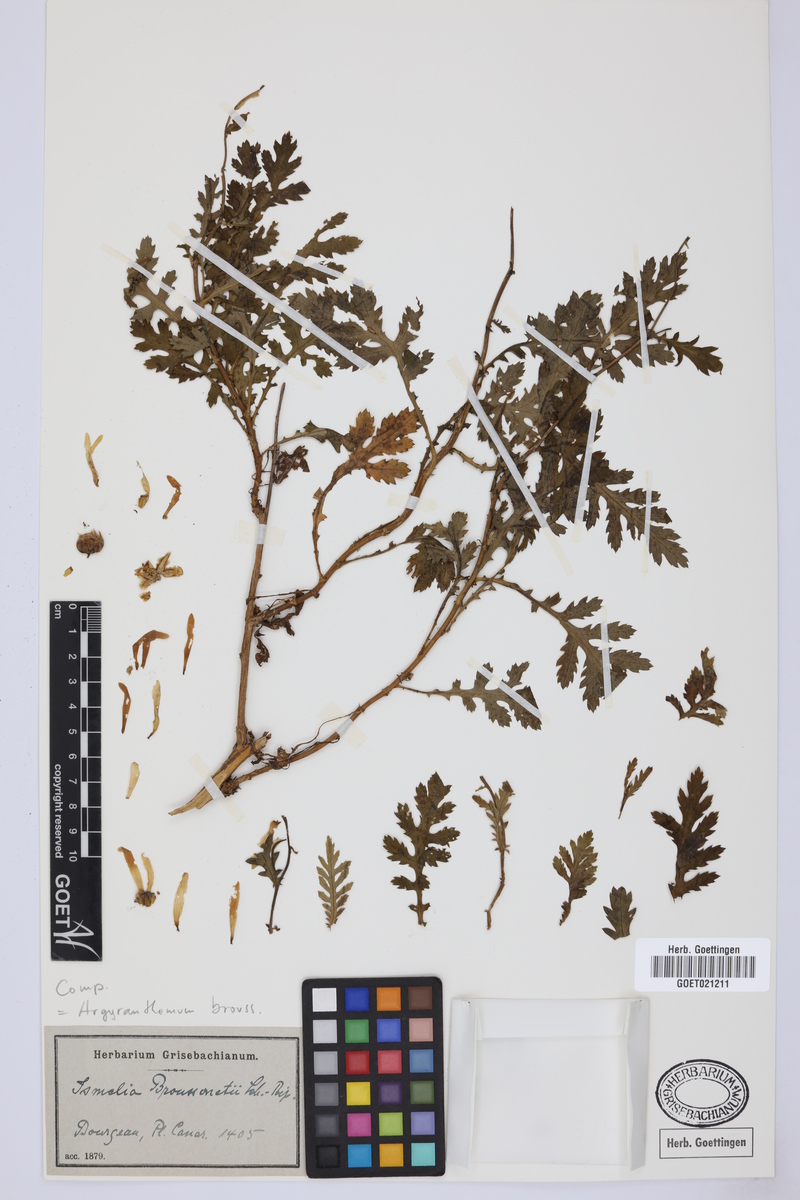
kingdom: Plantae
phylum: Tracheophyta
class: Magnoliopsida
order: Asterales
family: Asteraceae
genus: Argyranthemum
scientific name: Argyranthemum broussonetii
